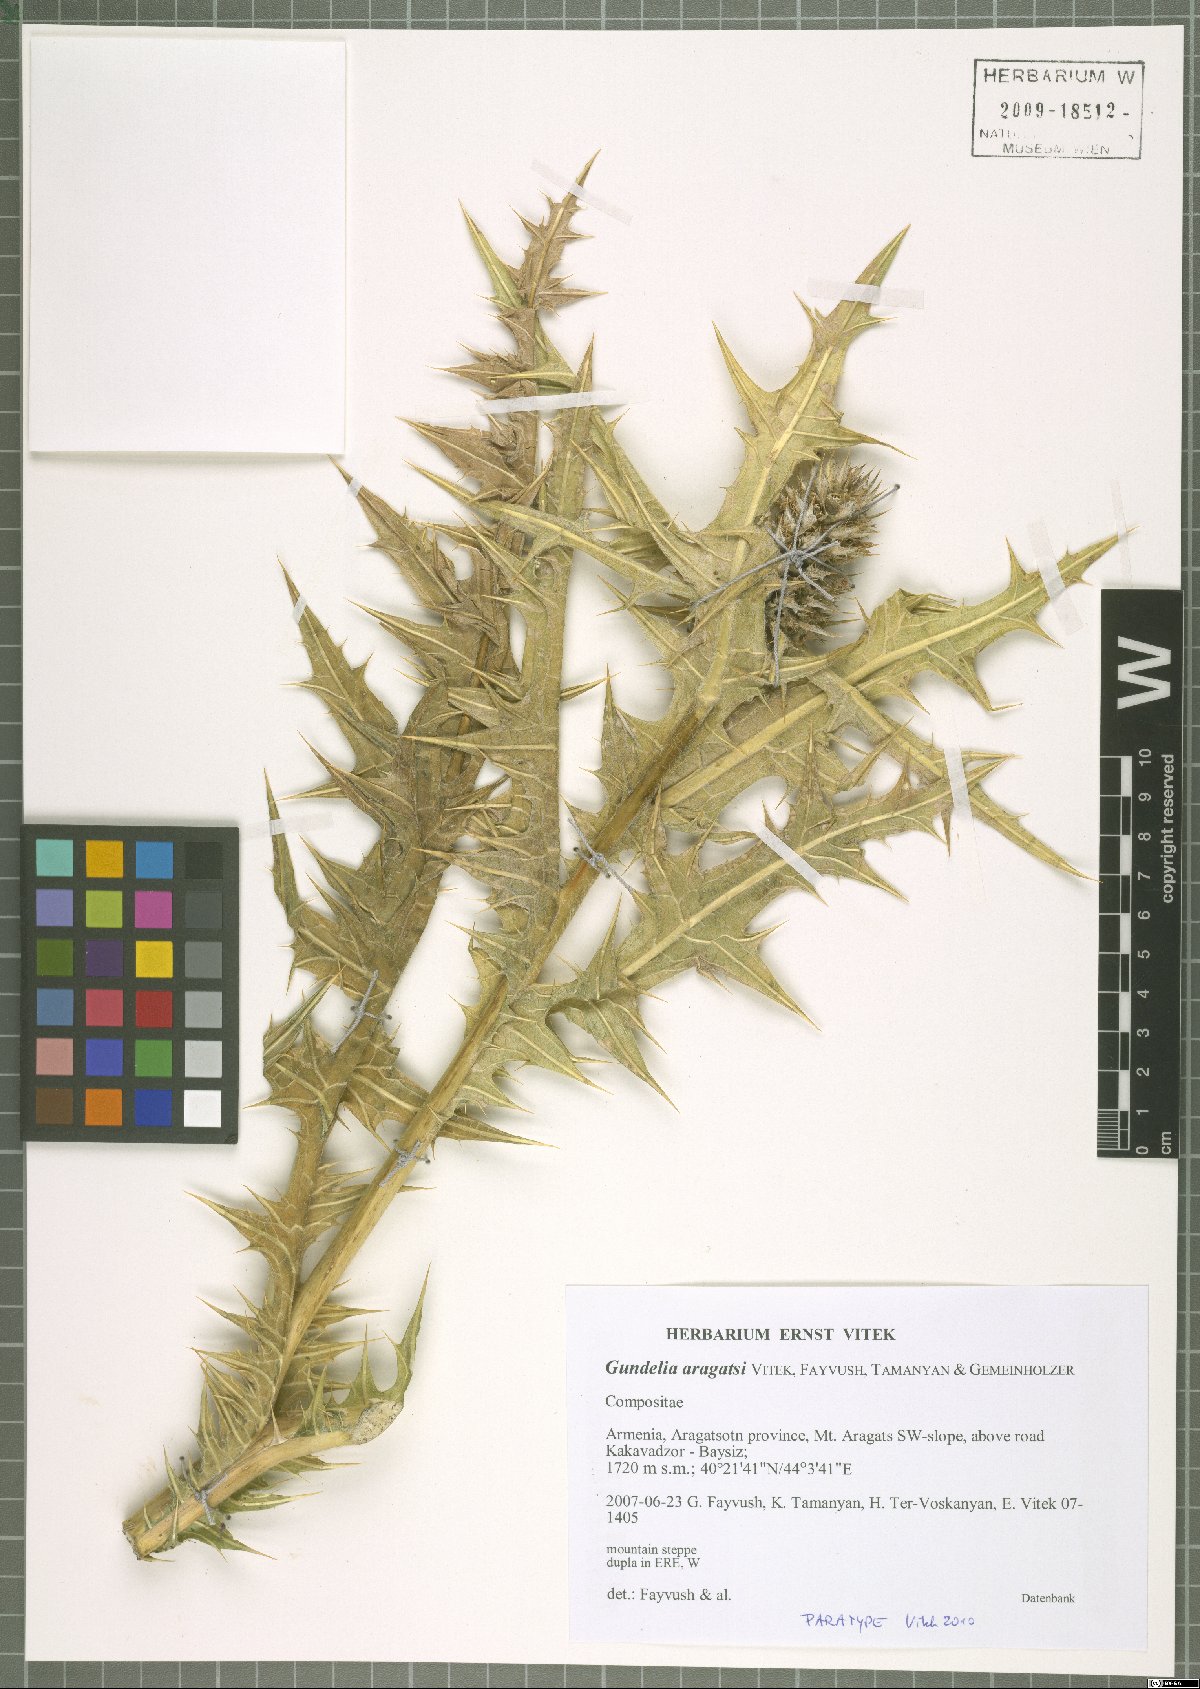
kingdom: Plantae
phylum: Tracheophyta
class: Magnoliopsida
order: Asterales
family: Asteraceae
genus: Gundelia
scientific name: Gundelia aragatsi
